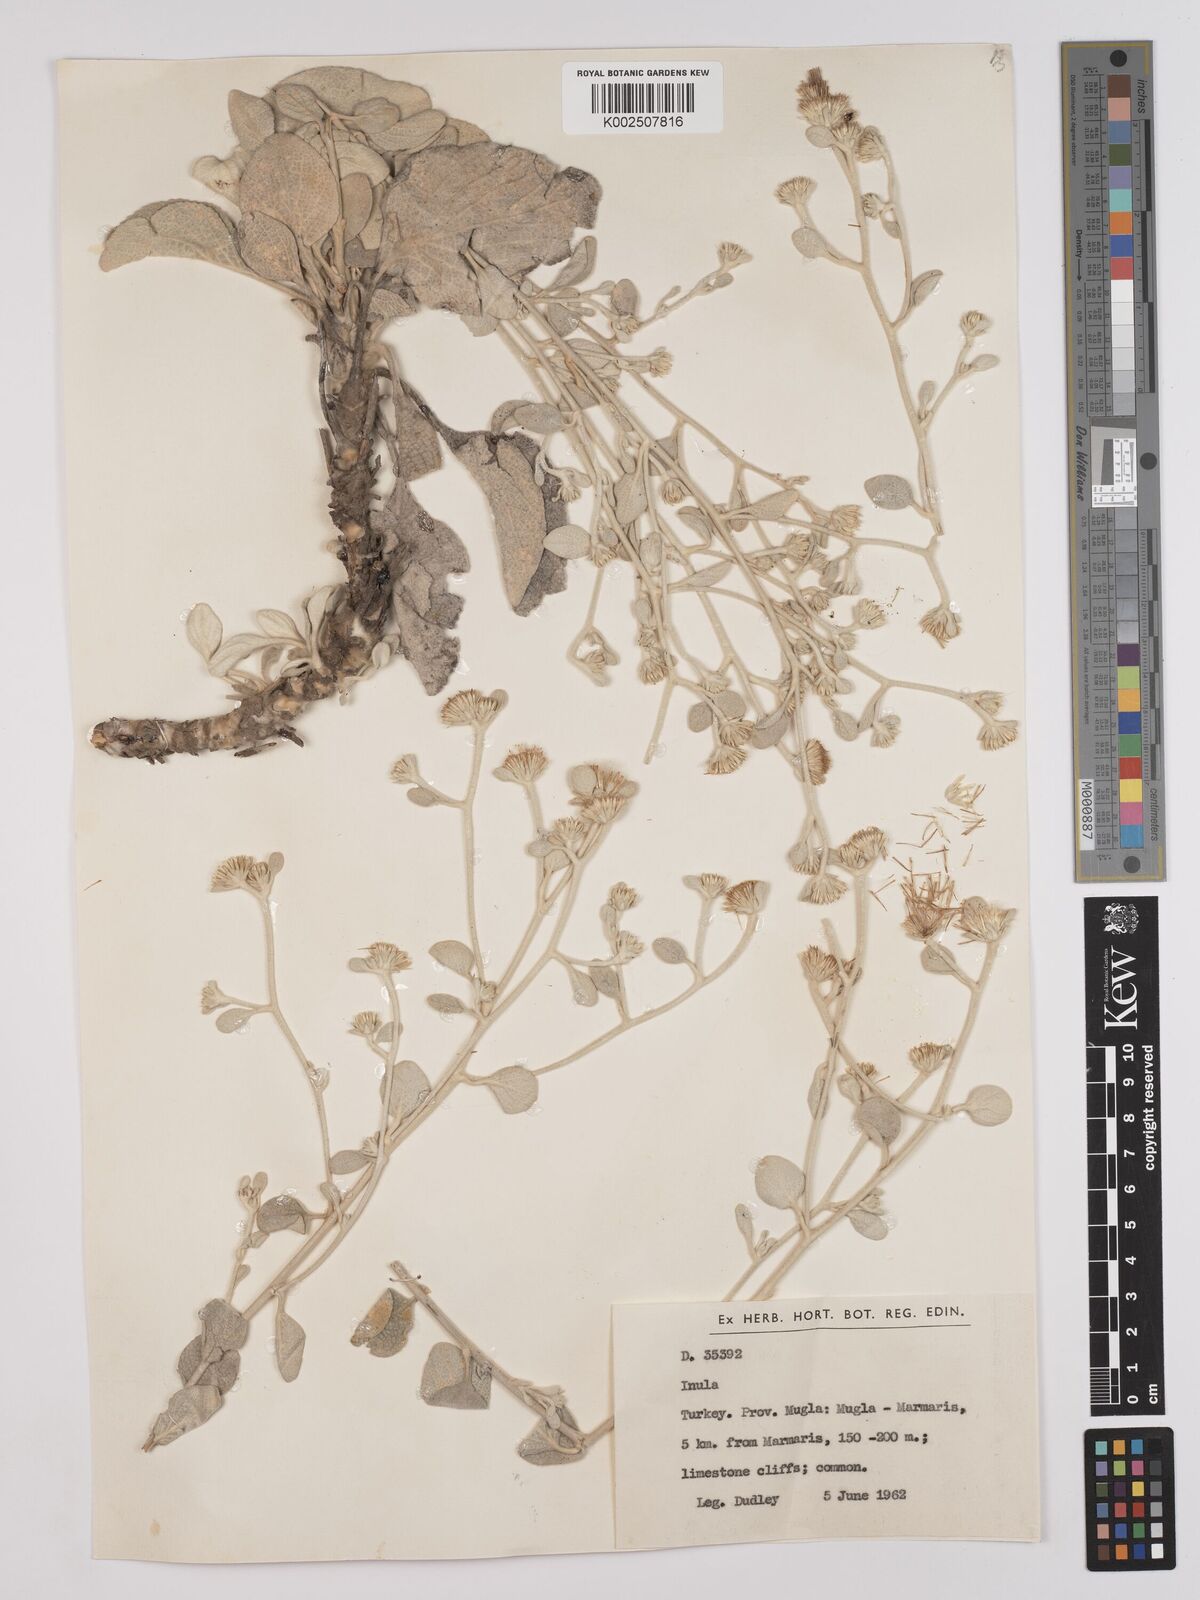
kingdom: Plantae
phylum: Tracheophyta
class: Magnoliopsida
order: Asterales
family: Asteraceae
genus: Pentanema
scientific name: Pentanema verbascifolium
